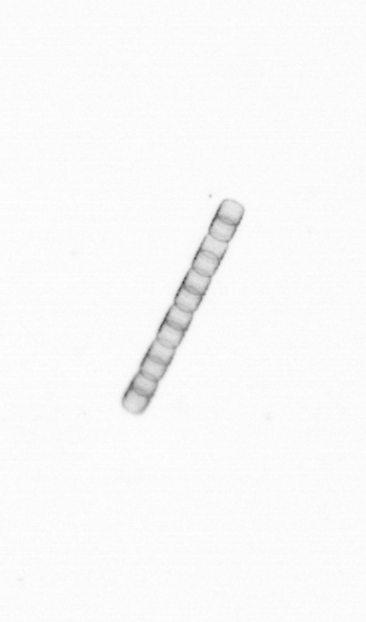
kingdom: Chromista
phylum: Ochrophyta
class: Bacillariophyceae
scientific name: Bacillariophyceae
